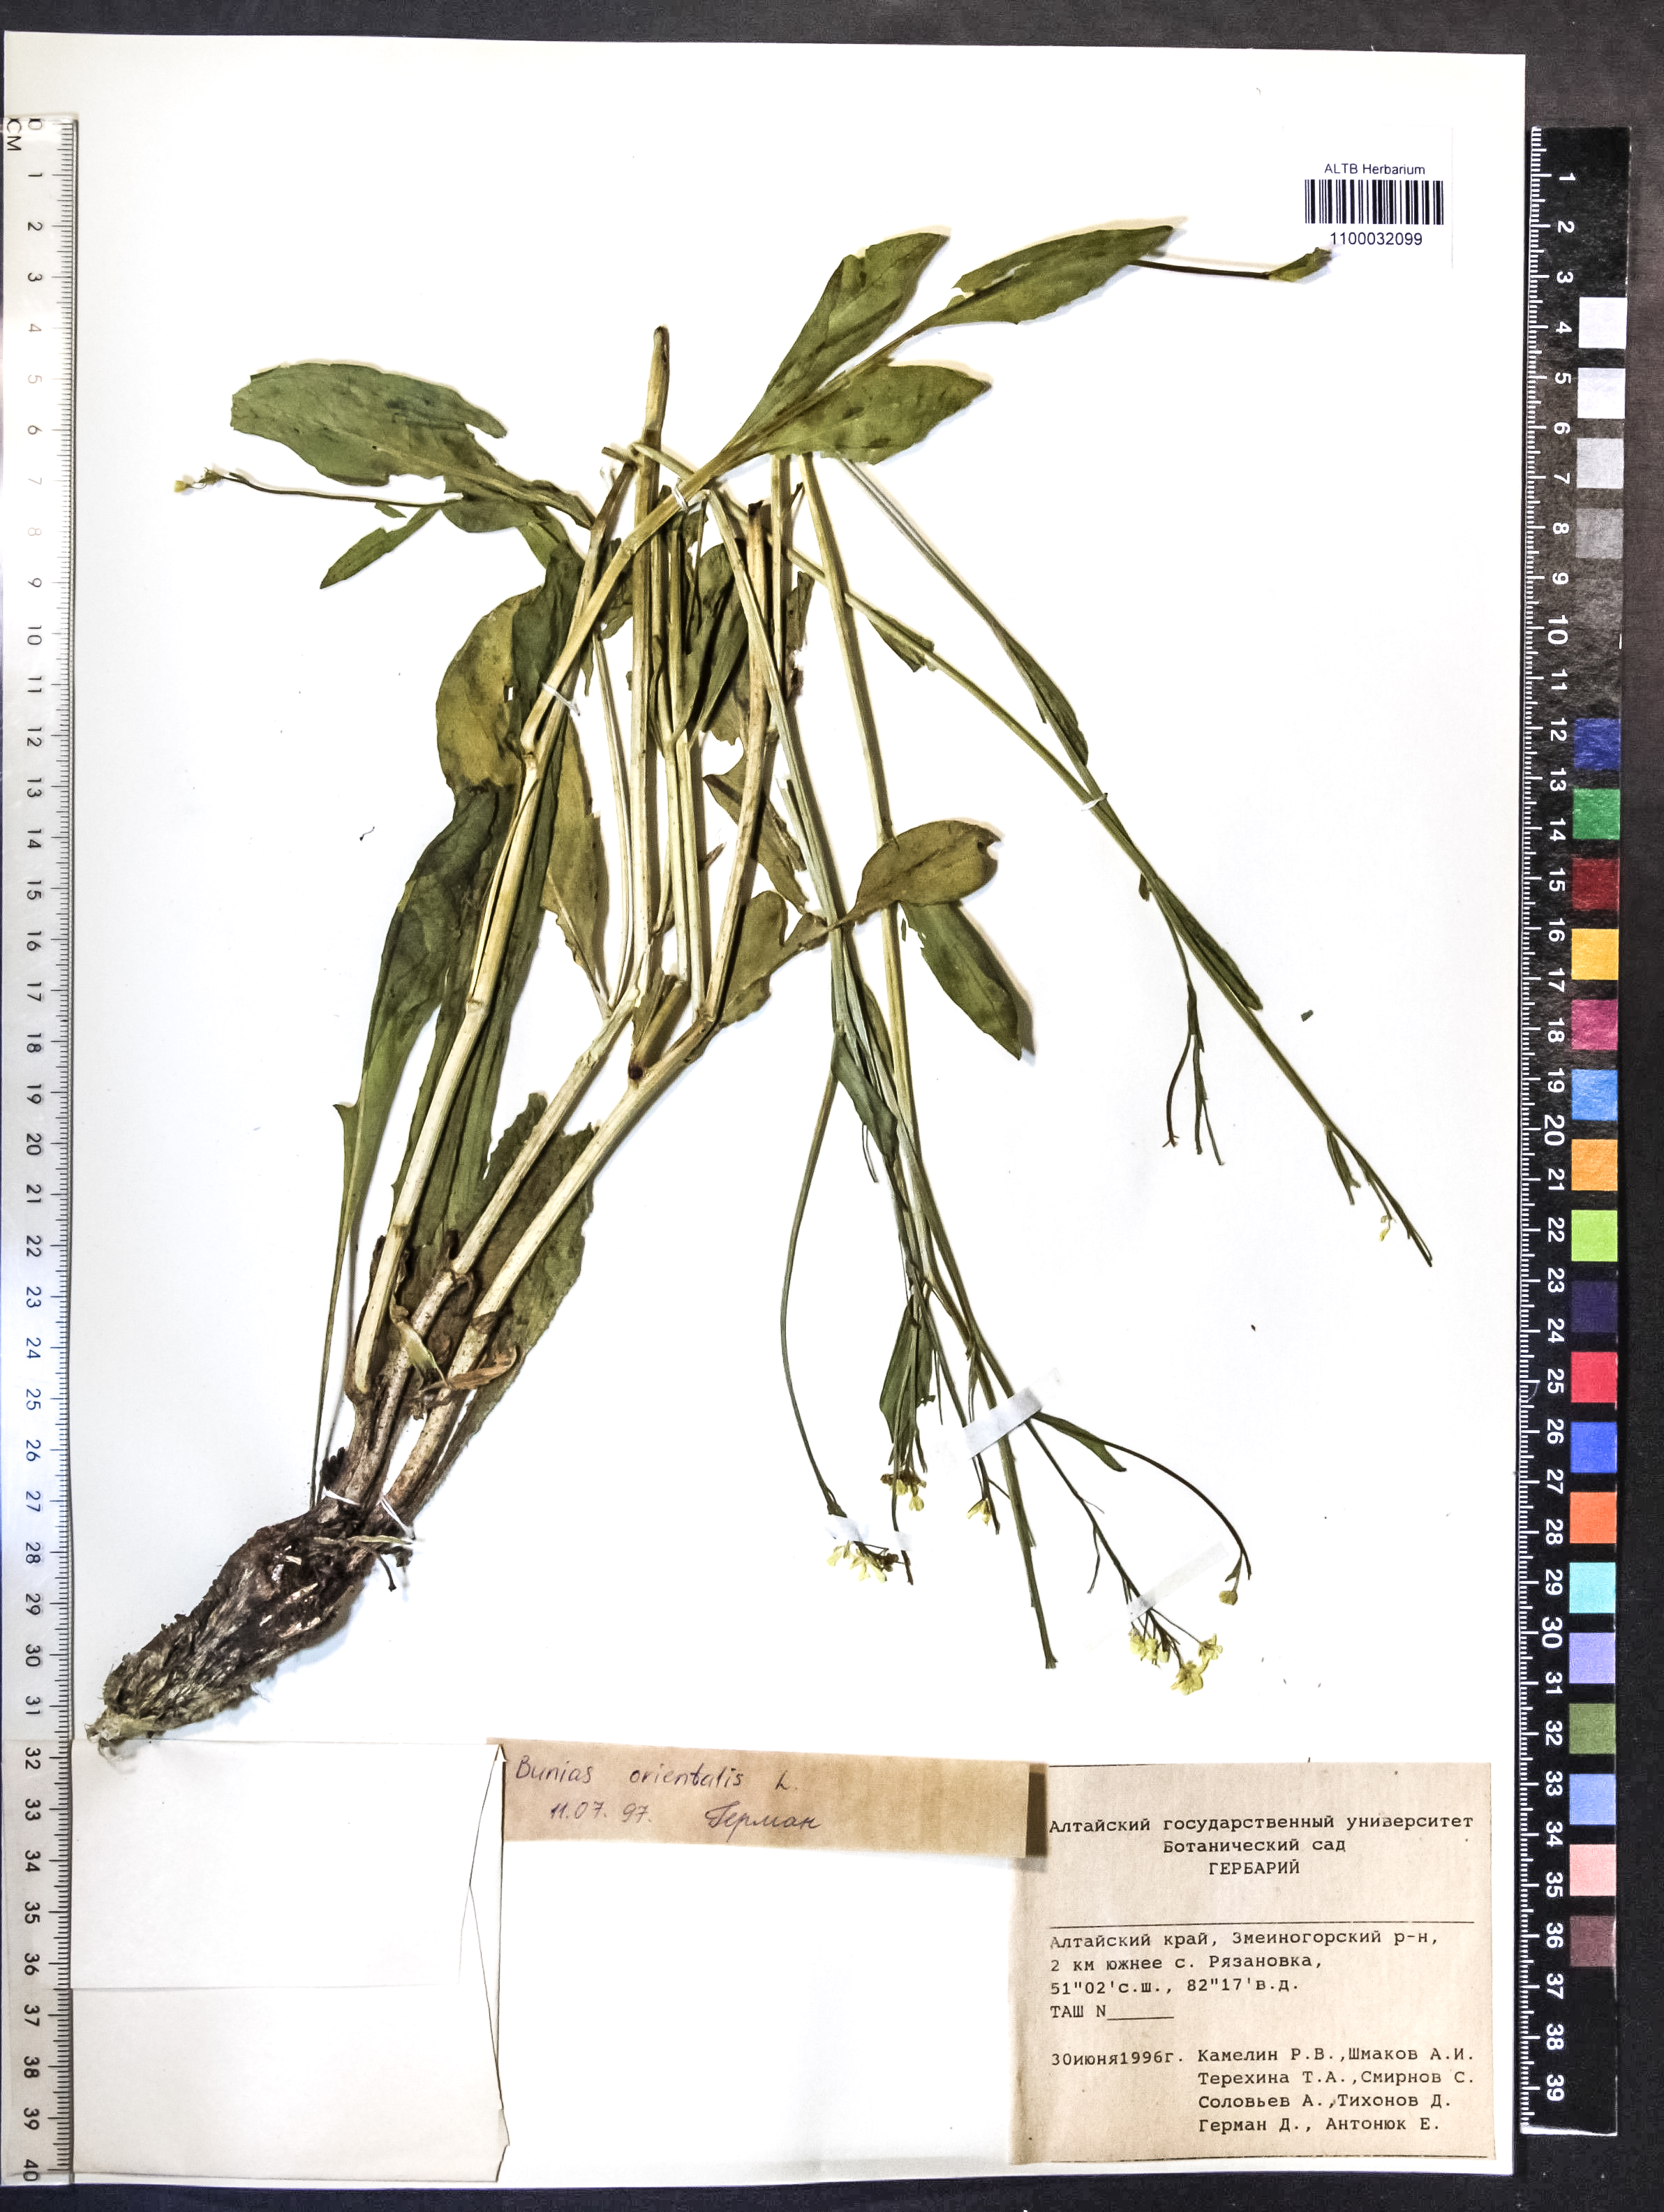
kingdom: Plantae
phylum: Tracheophyta
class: Magnoliopsida
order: Brassicales
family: Brassicaceae
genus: Bunias
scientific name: Bunias orientalis
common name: Warty-cabbage
